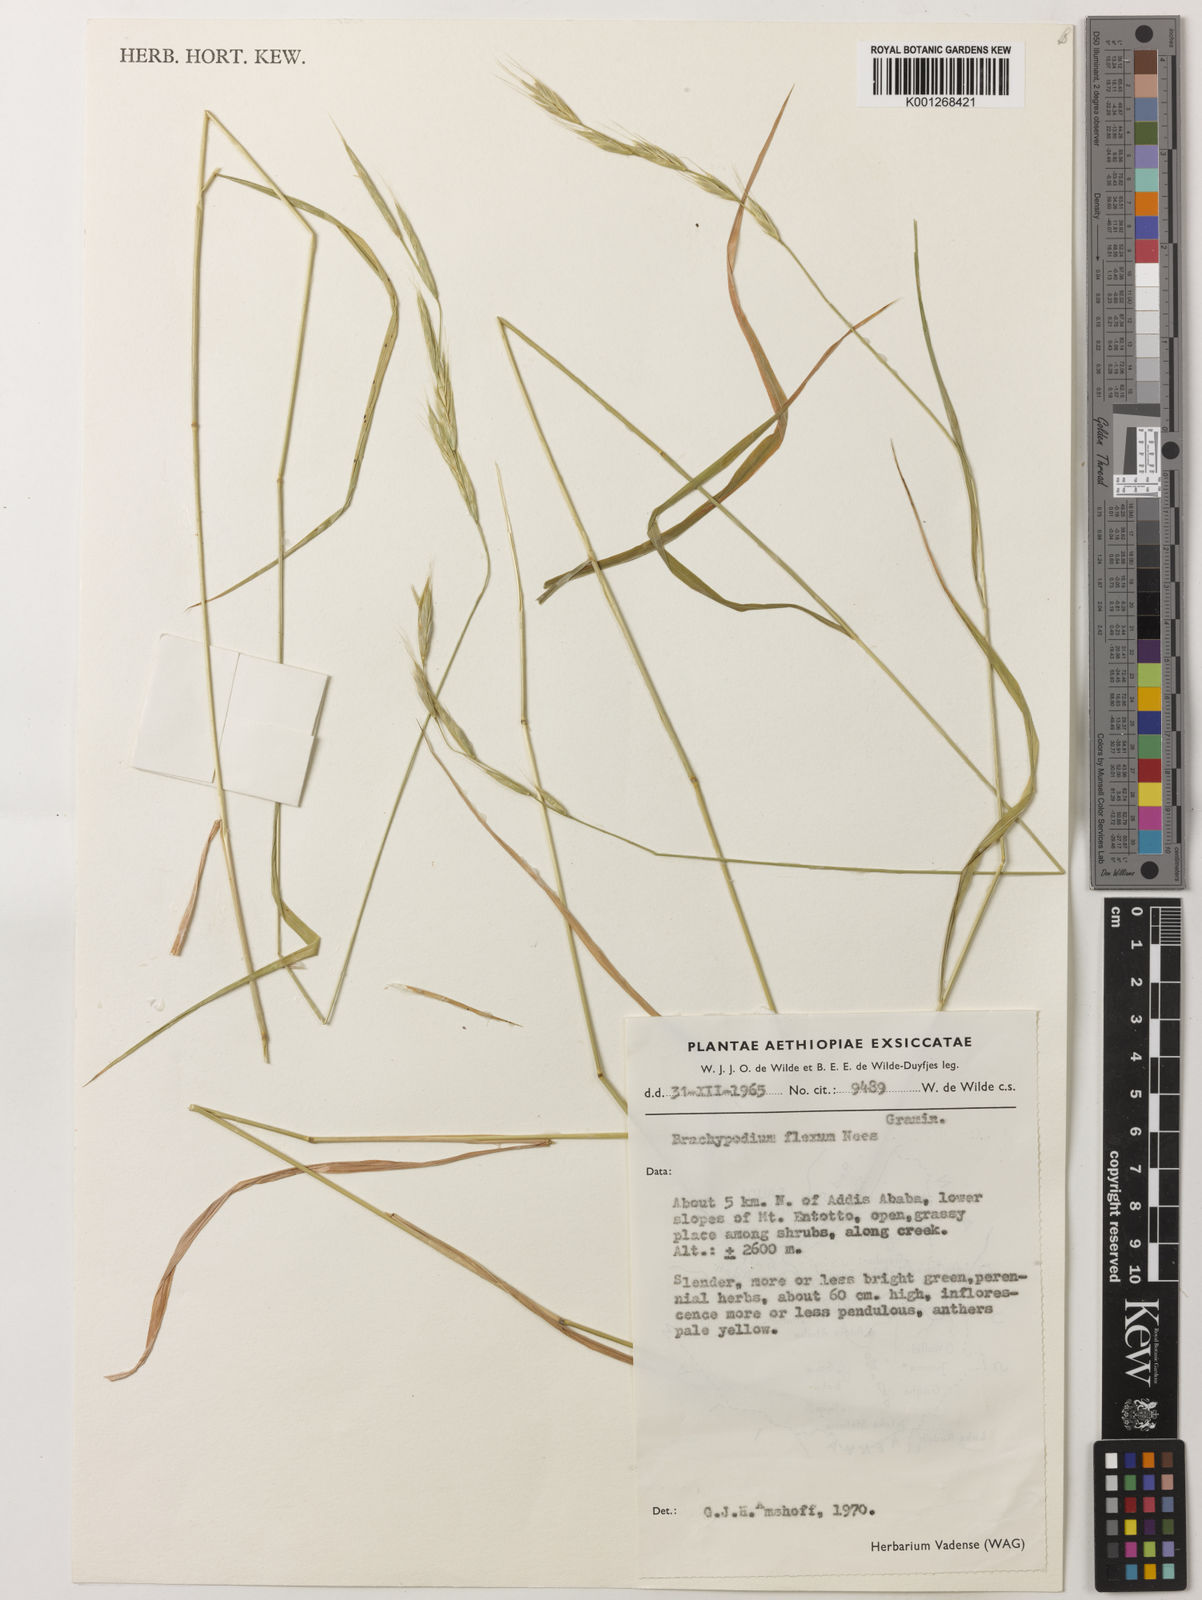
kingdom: Plantae
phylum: Tracheophyta
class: Liliopsida
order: Poales
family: Poaceae
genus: Brachypodium
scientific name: Brachypodium flexum
